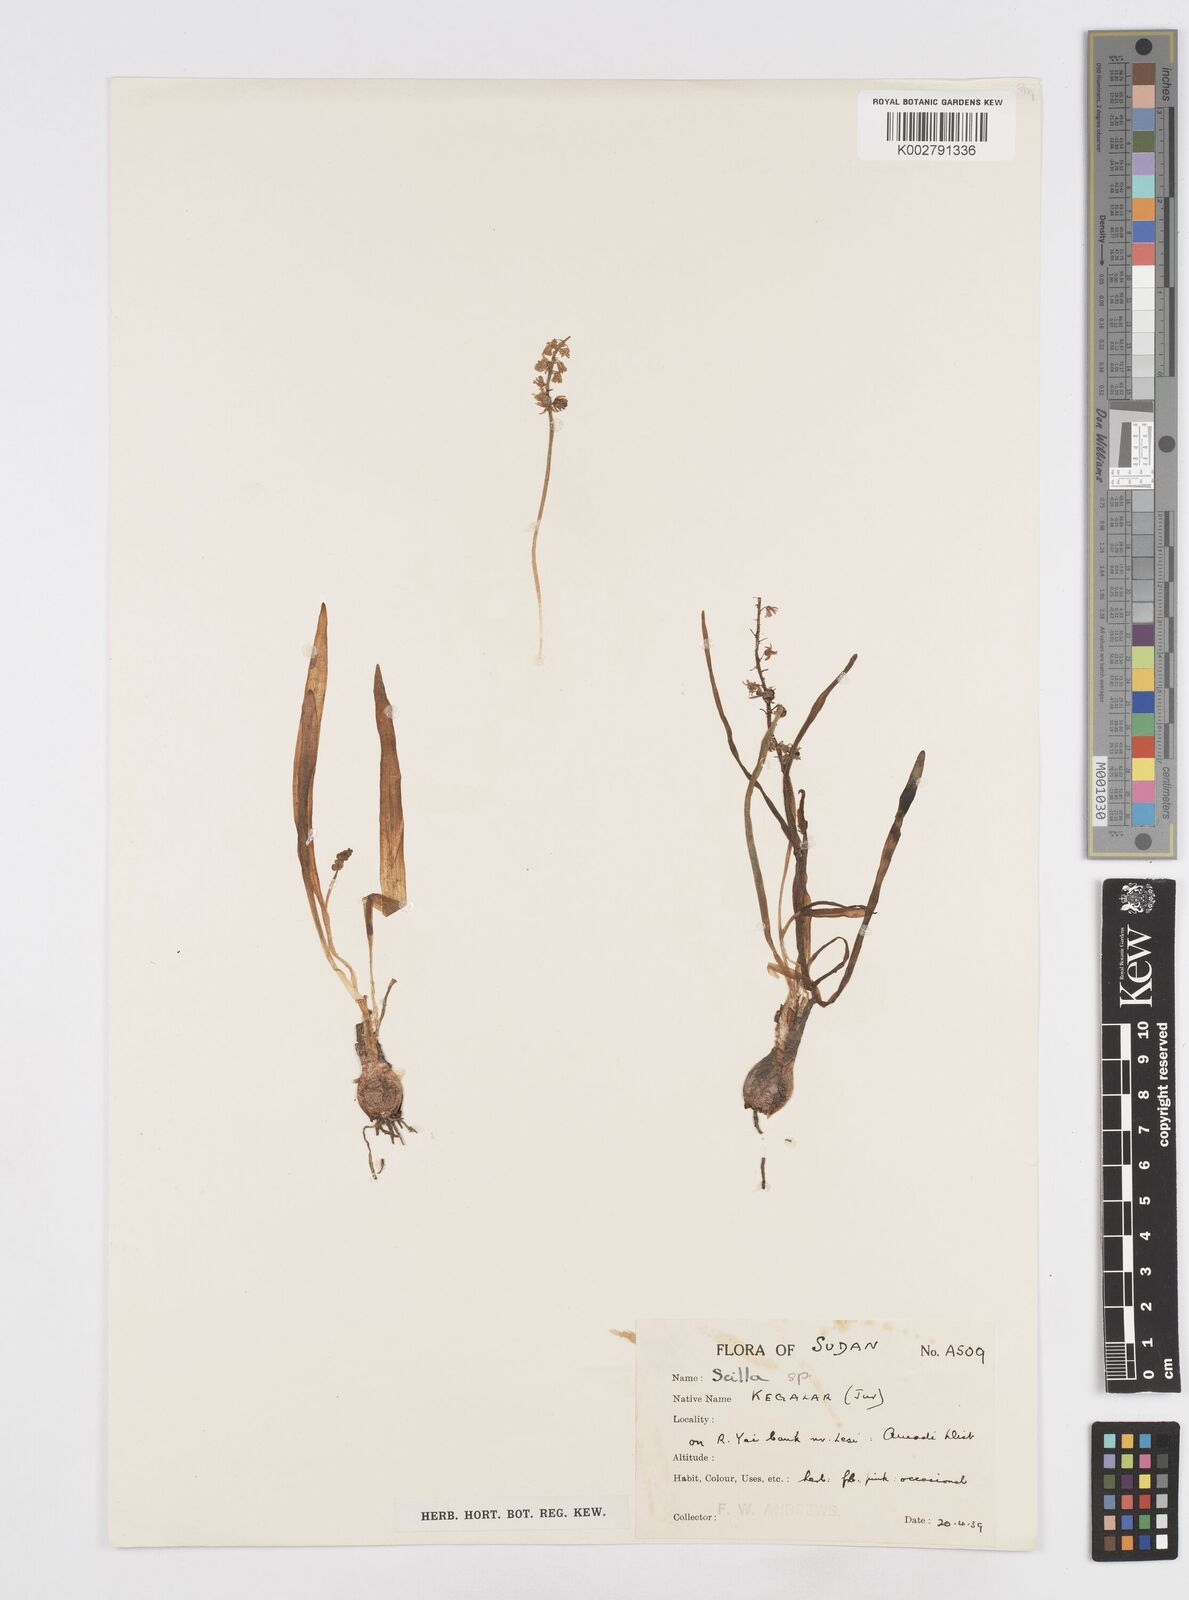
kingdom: Plantae
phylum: Tracheophyta
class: Liliopsida
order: Asparagales
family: Asparagaceae
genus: Scilla
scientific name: Scilla
